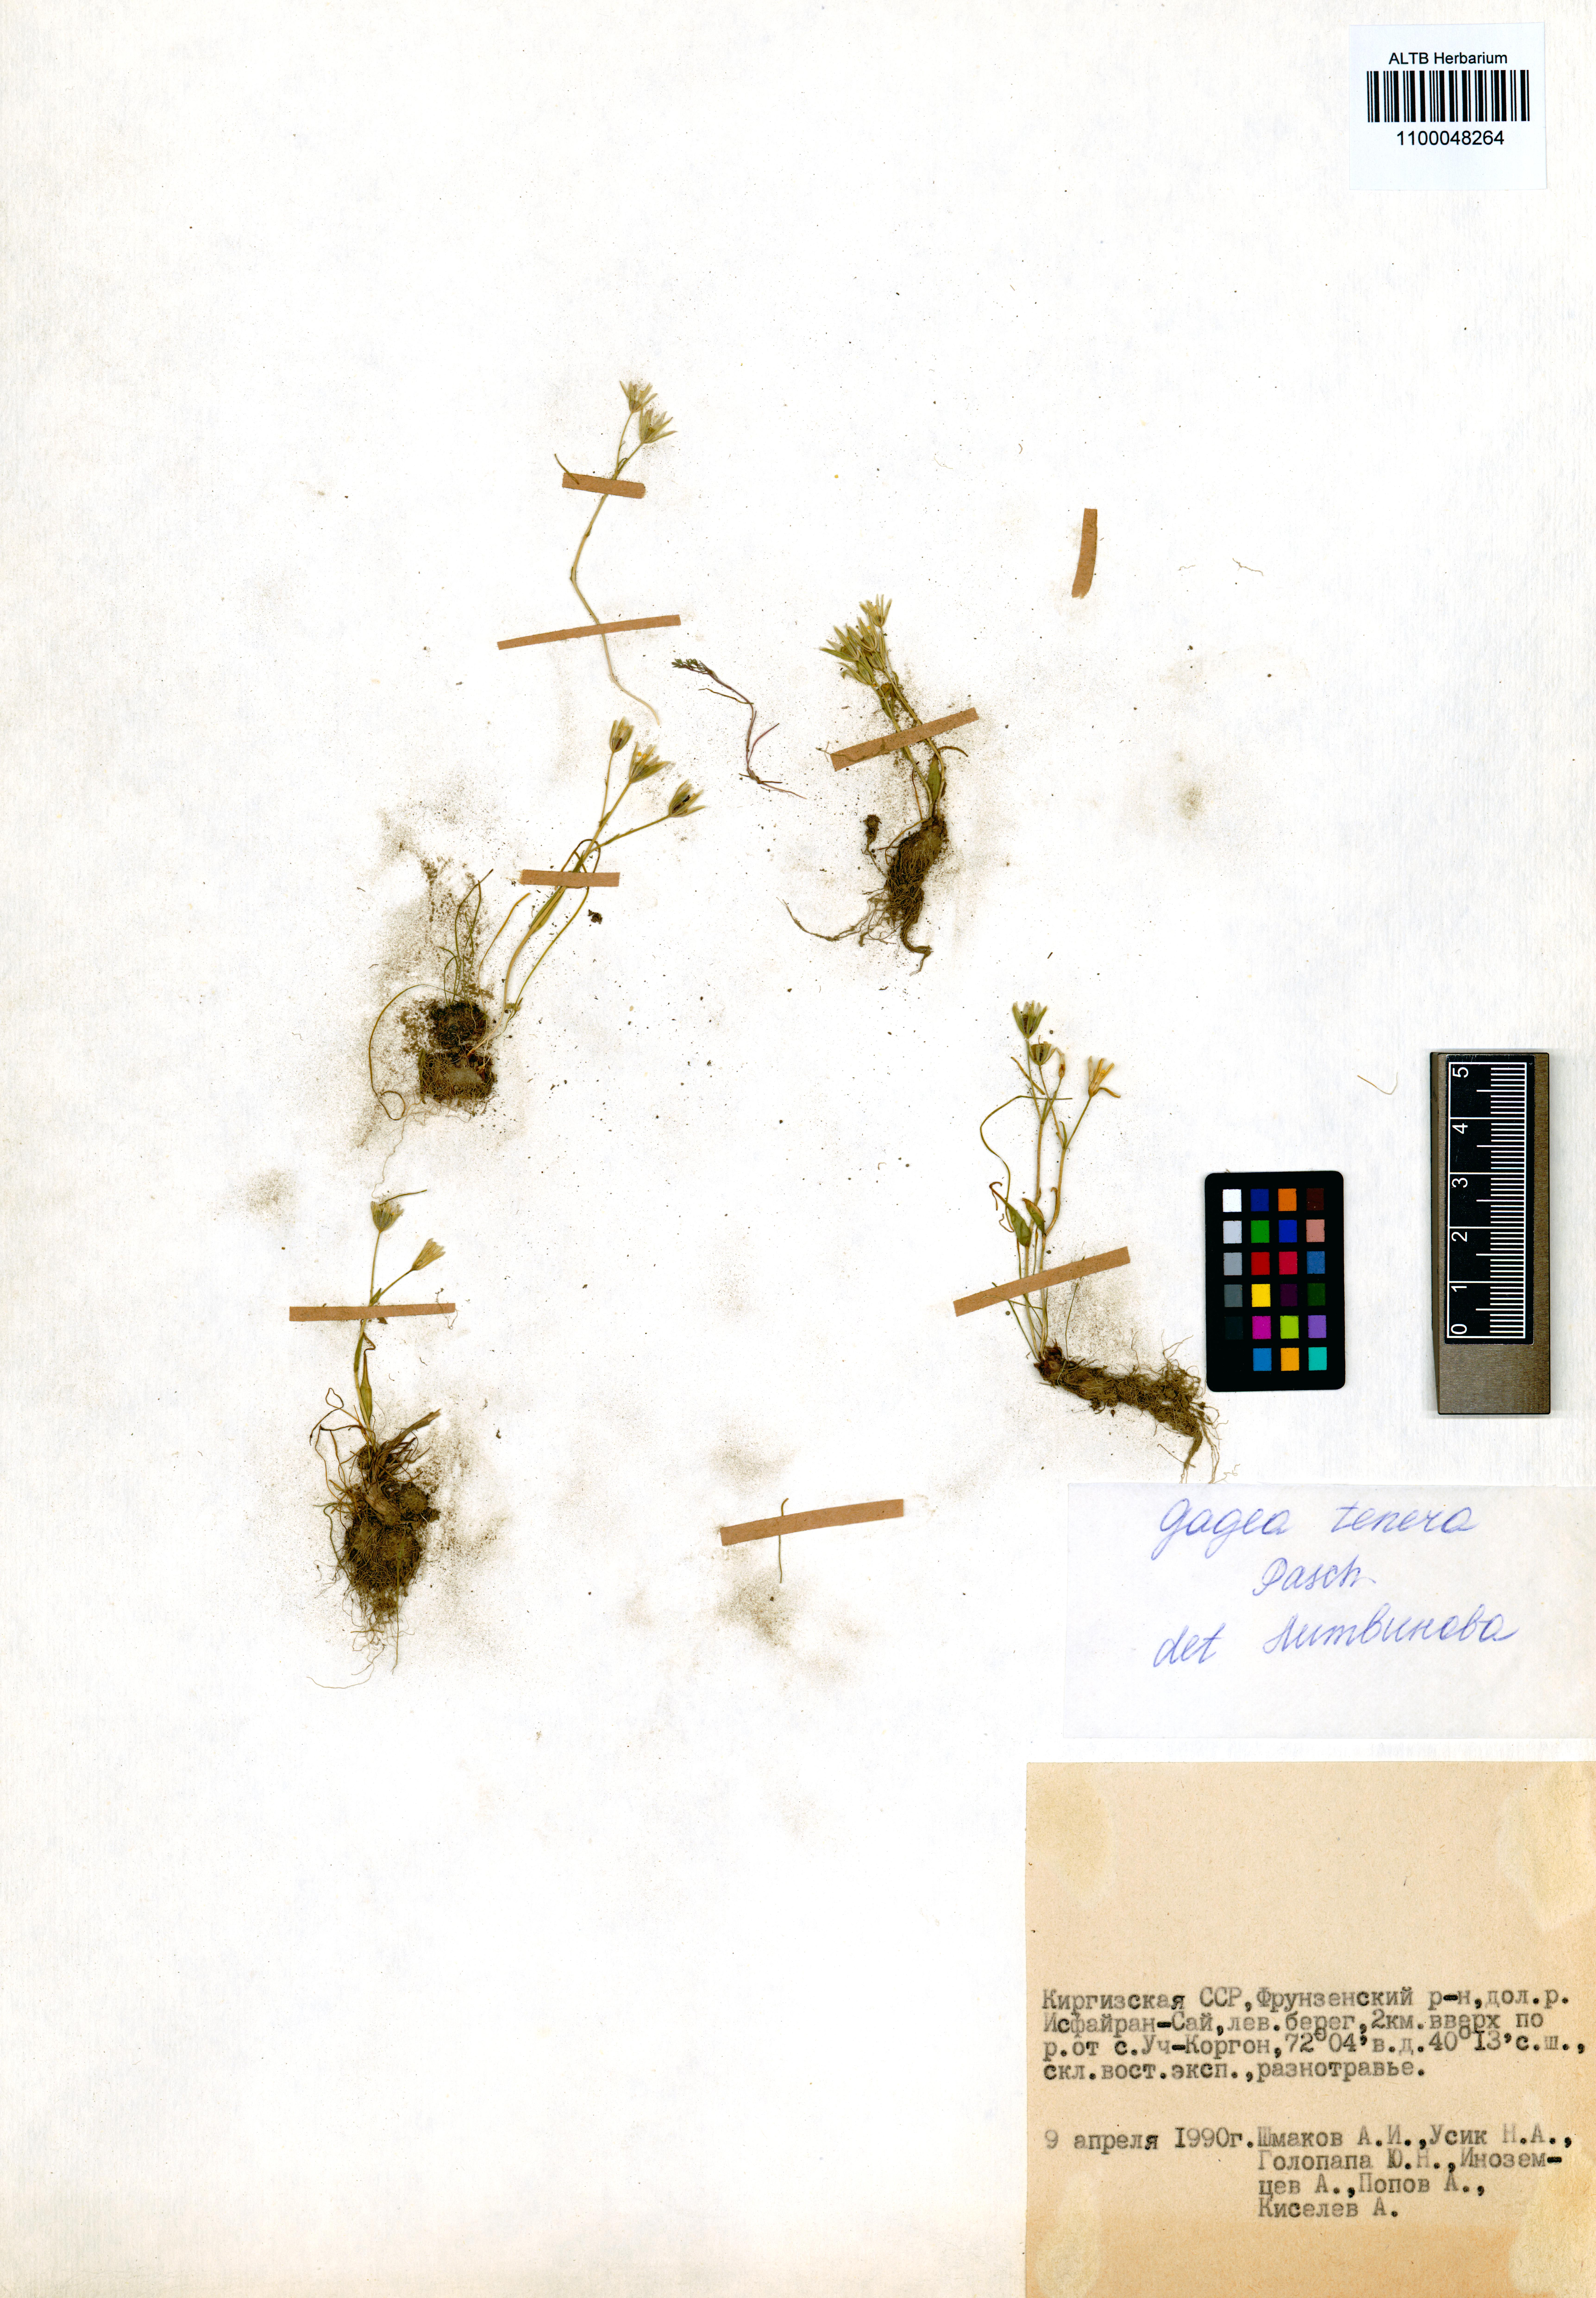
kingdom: Plantae
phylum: Tracheophyta
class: Liliopsida
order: Liliales
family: Liliaceae
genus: Gagea
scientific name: Gagea tenera
